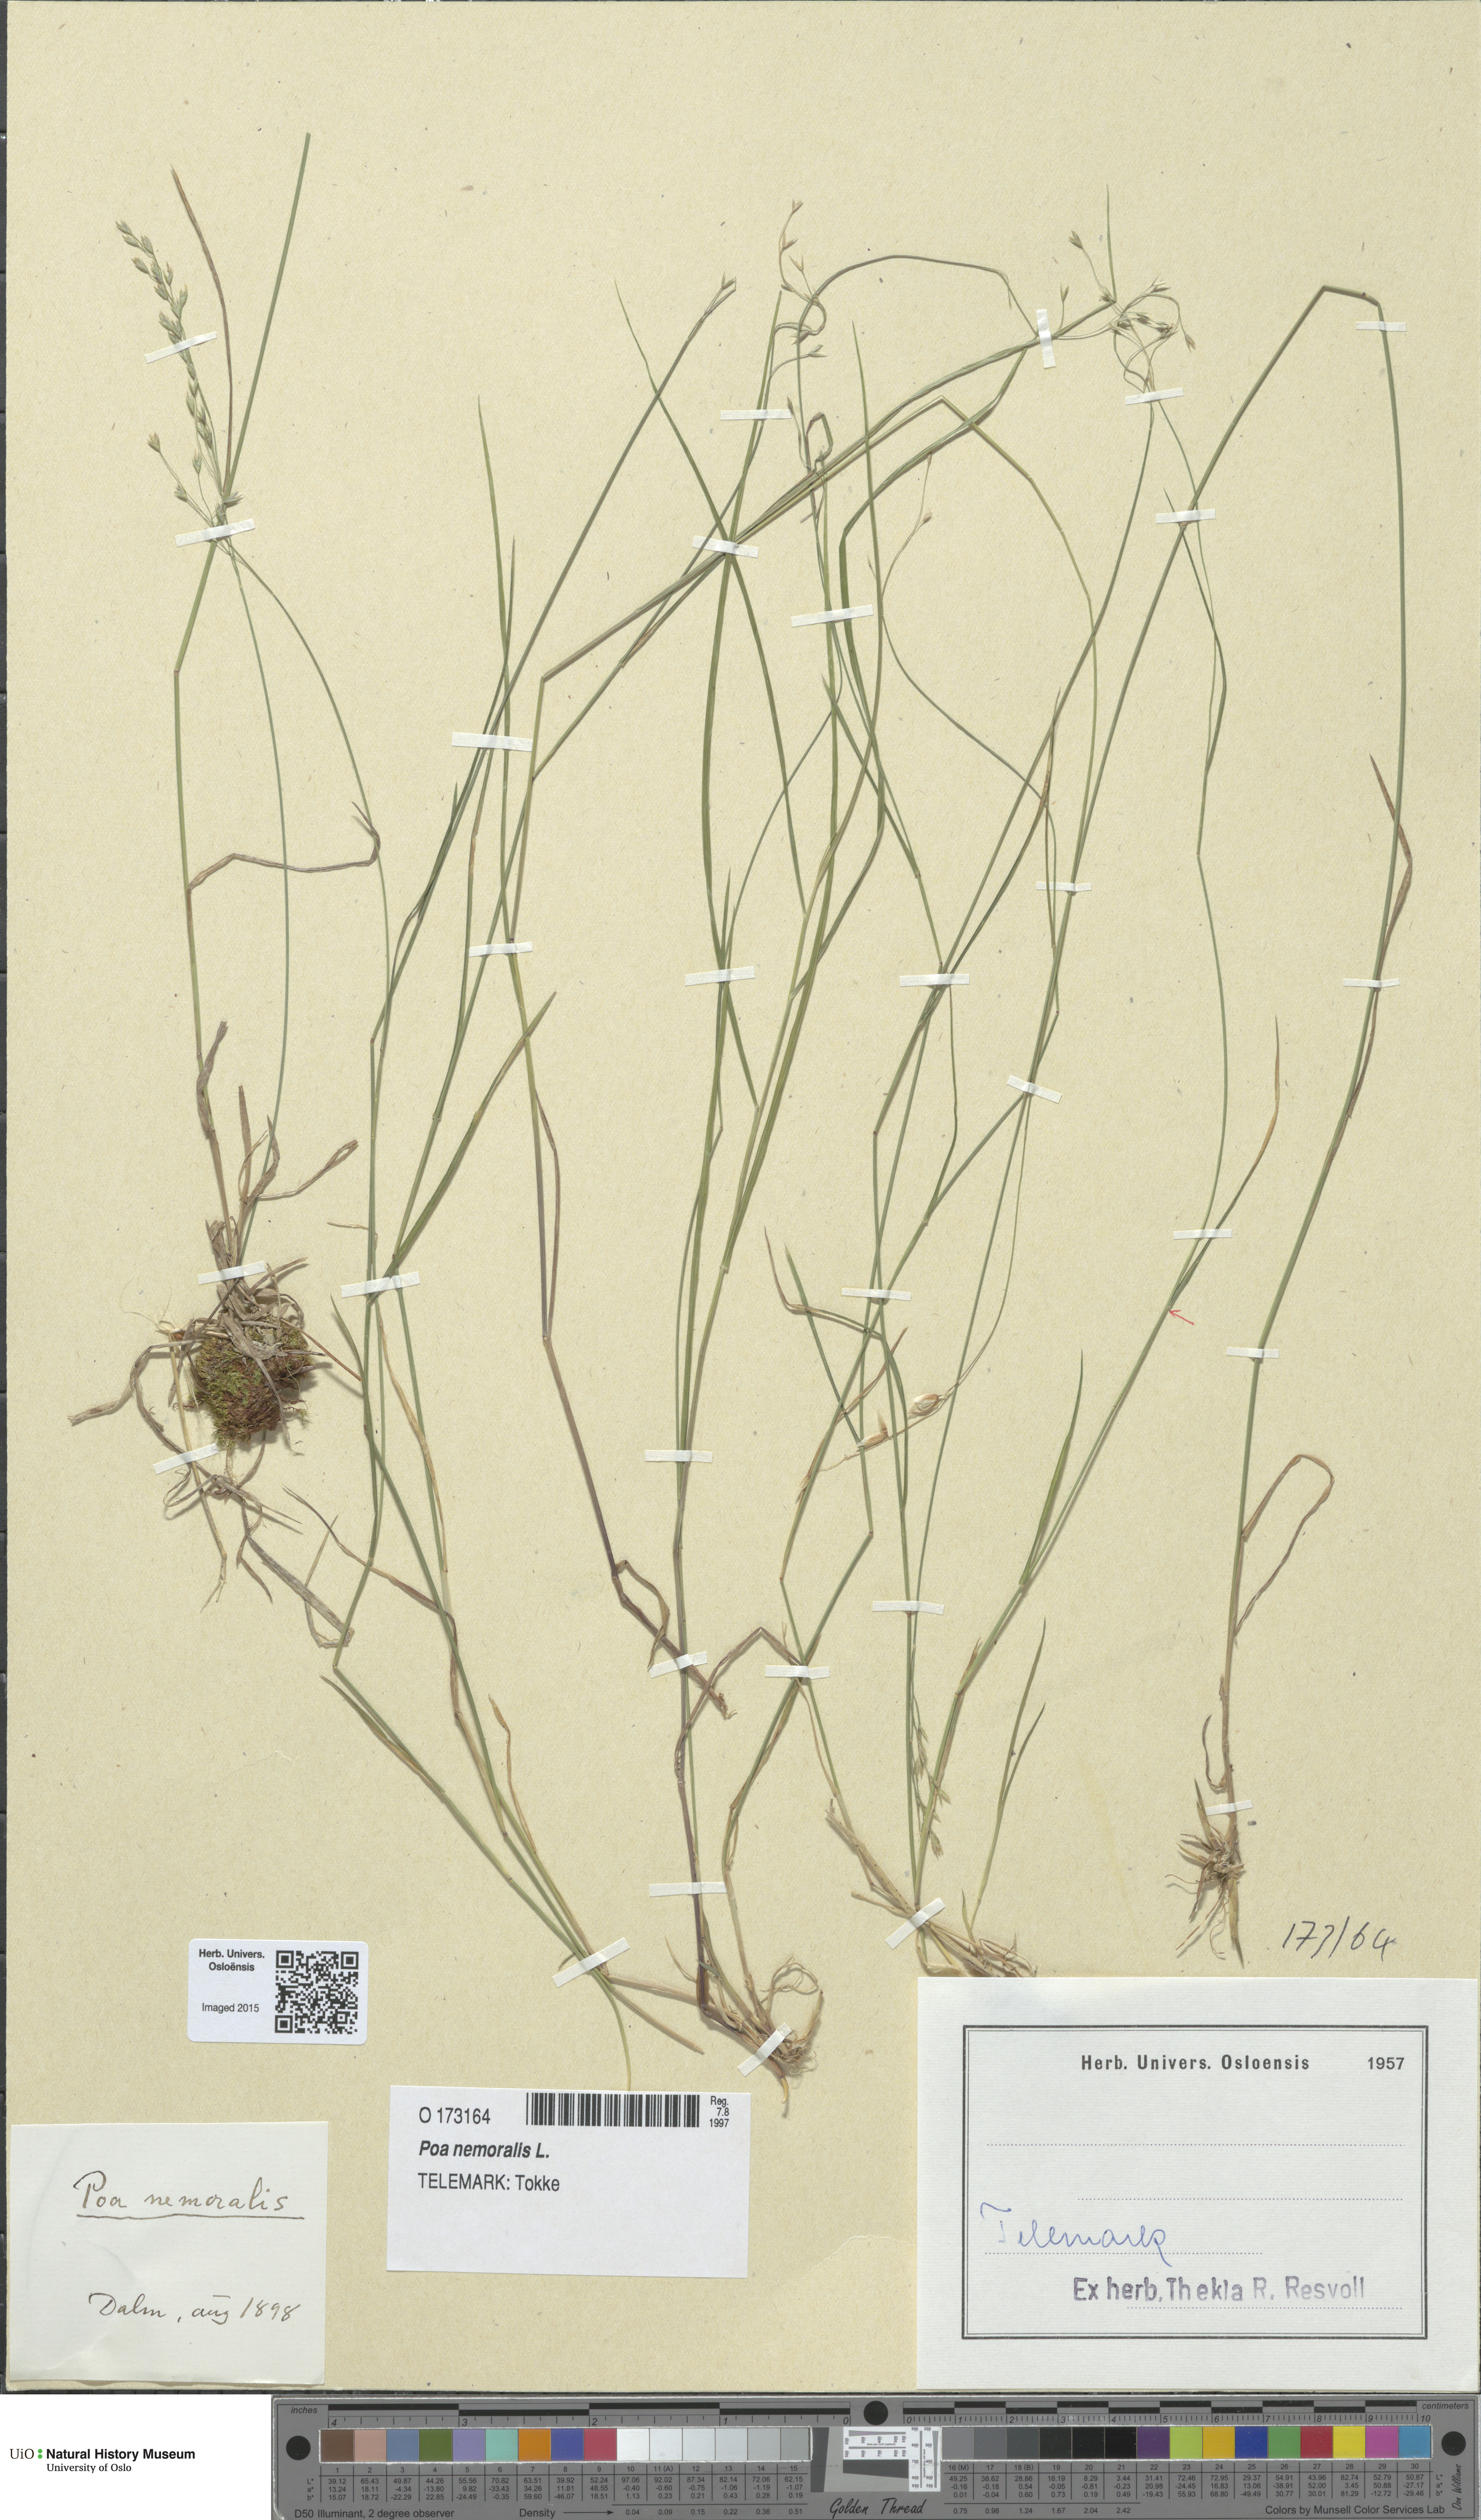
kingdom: Plantae
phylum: Tracheophyta
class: Liliopsida
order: Poales
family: Poaceae
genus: Poa
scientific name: Poa nemoralis
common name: Wood bluegrass
